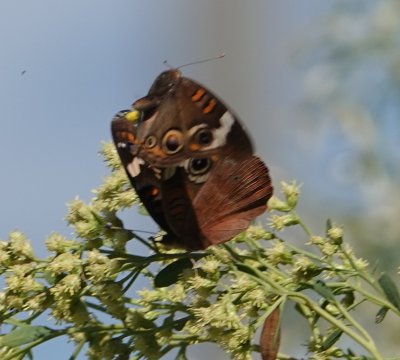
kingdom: Animalia
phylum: Arthropoda
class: Insecta
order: Lepidoptera
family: Nymphalidae
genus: Junonia
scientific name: Junonia coenia
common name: Common Buckeye
